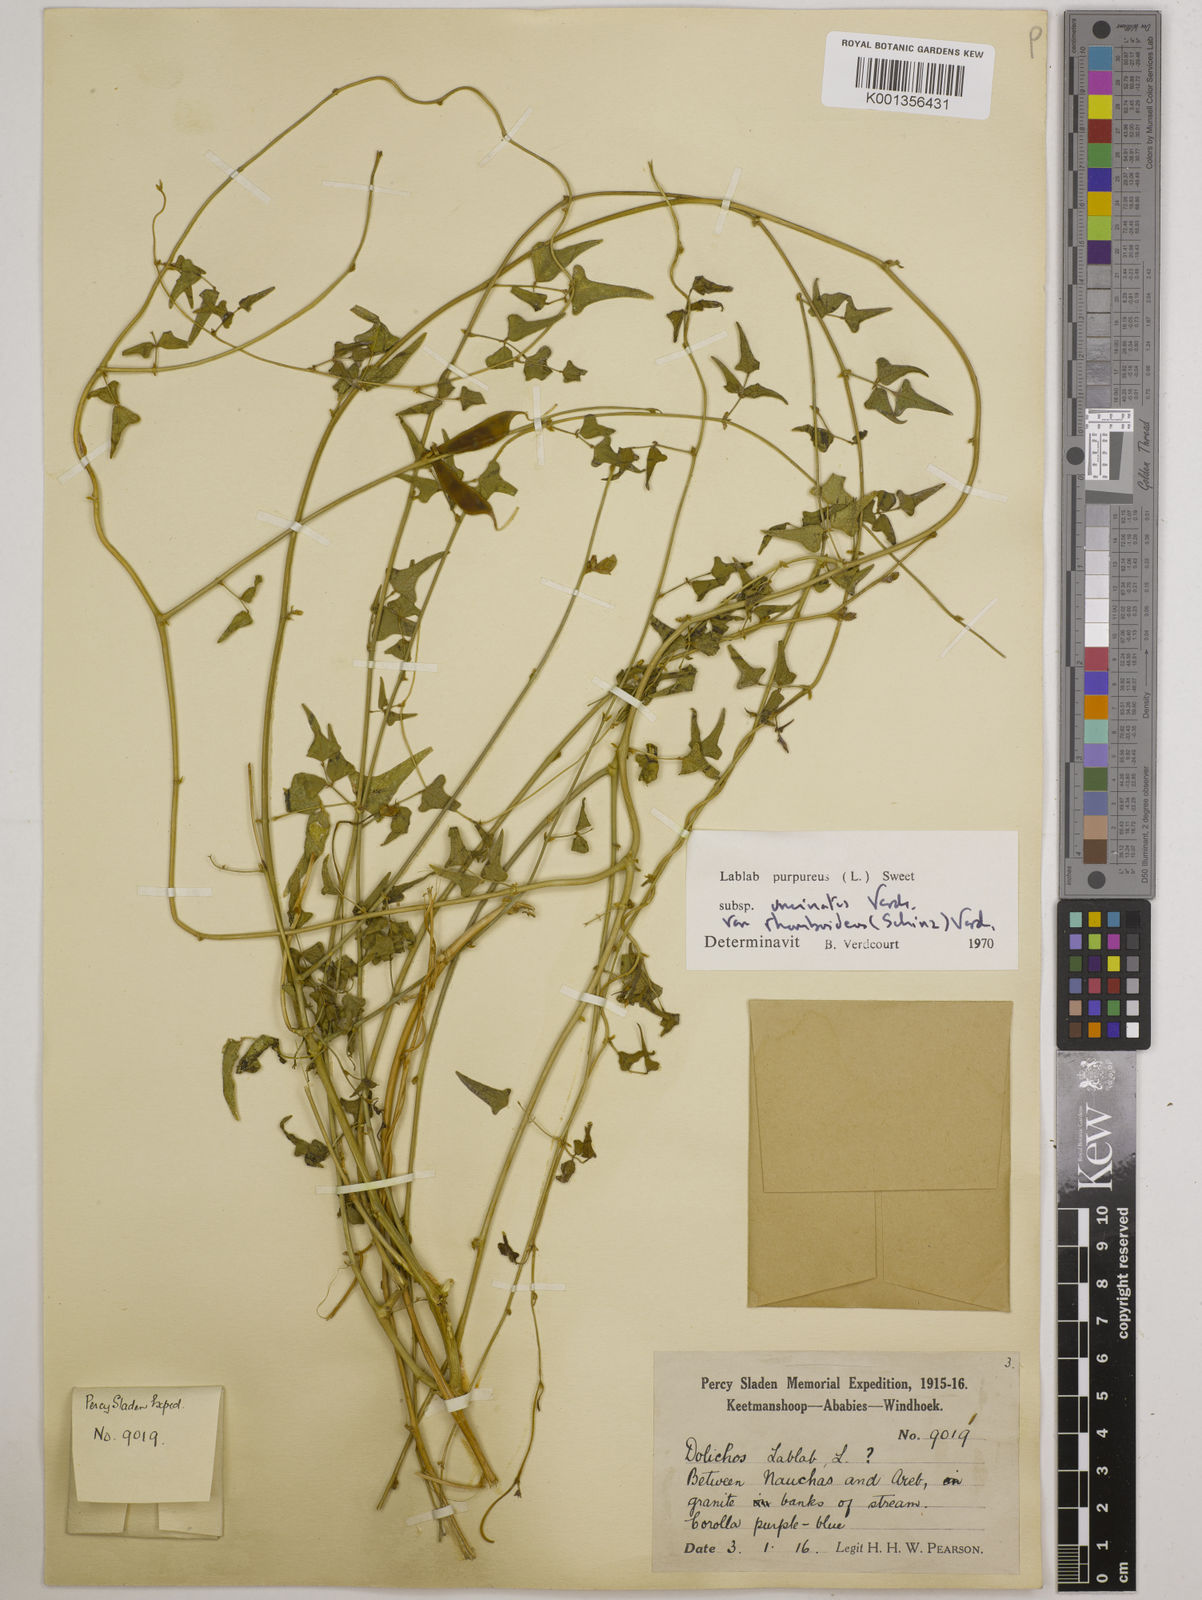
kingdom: Plantae
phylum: Tracheophyta
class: Magnoliopsida
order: Fabales
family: Fabaceae
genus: Lablab
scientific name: Lablab purpureus
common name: Lablab-bean
